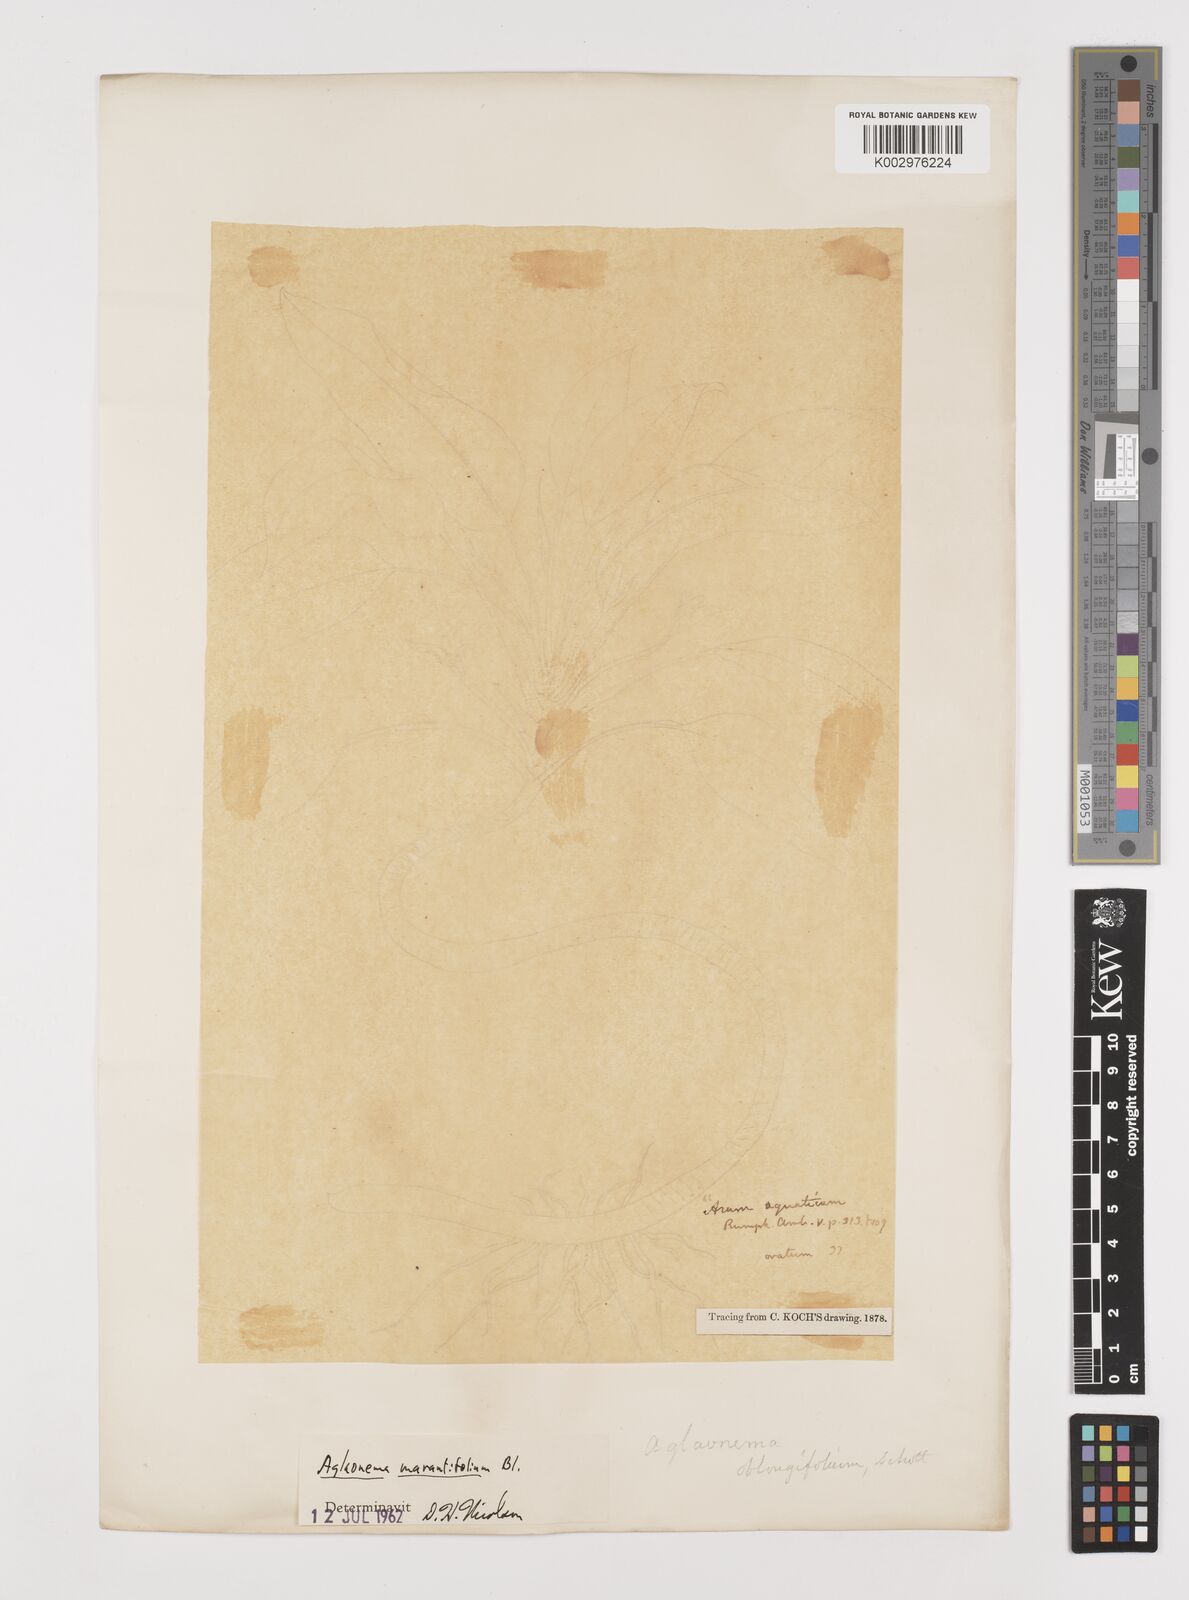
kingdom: Plantae
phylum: Tracheophyta
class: Liliopsida
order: Alismatales
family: Araceae
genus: Aglaonema
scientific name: Aglaonema marantifolium
